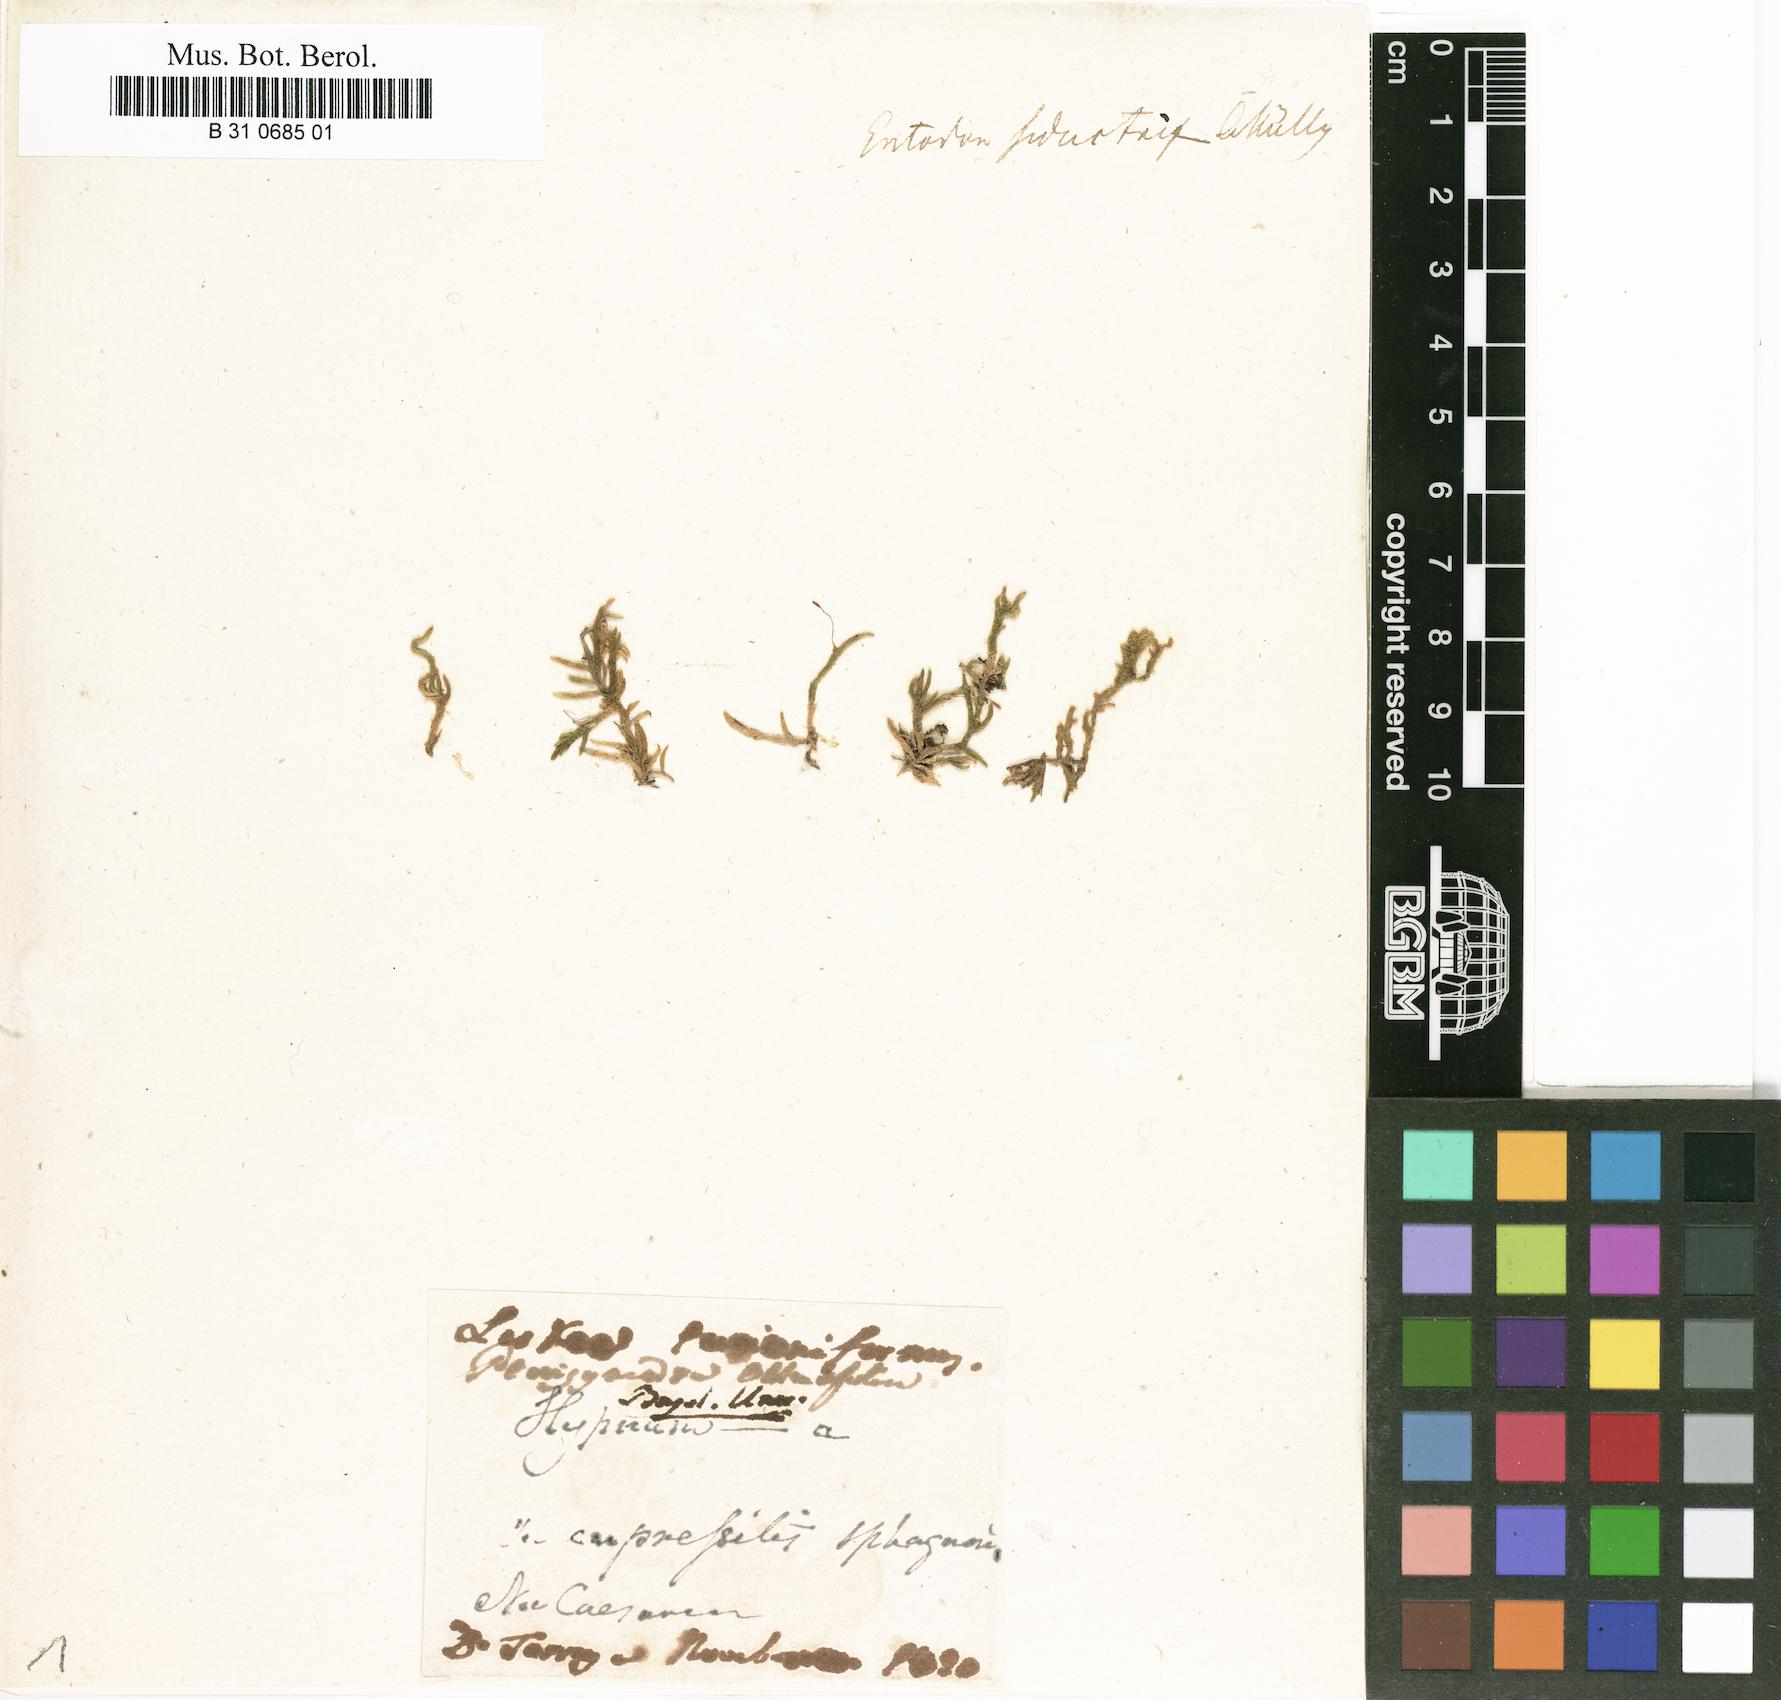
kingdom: Plantae
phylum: Bryophyta
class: Bryopsida
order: Hypnales
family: Entodontaceae
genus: Entodon
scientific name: Entodon seductrix
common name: Round-stemmed entodon moss
